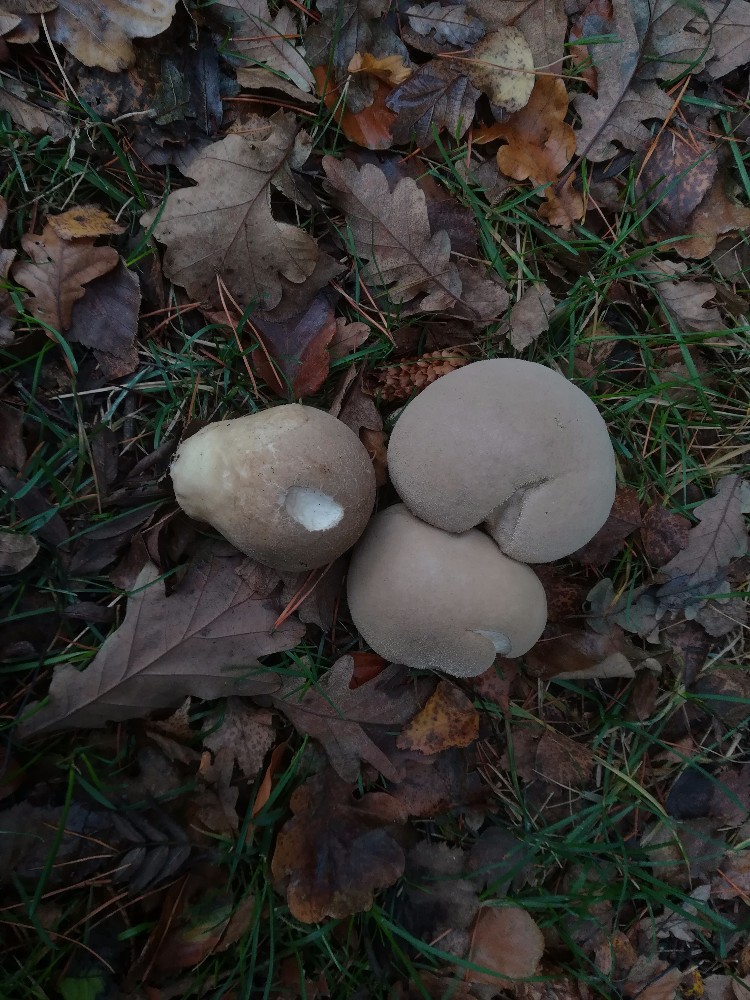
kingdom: Fungi
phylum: Basidiomycota
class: Agaricomycetes
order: Agaricales
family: Lycoperdaceae
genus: Lycoperdon
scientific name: Lycoperdon molle
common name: skov-støvbold
